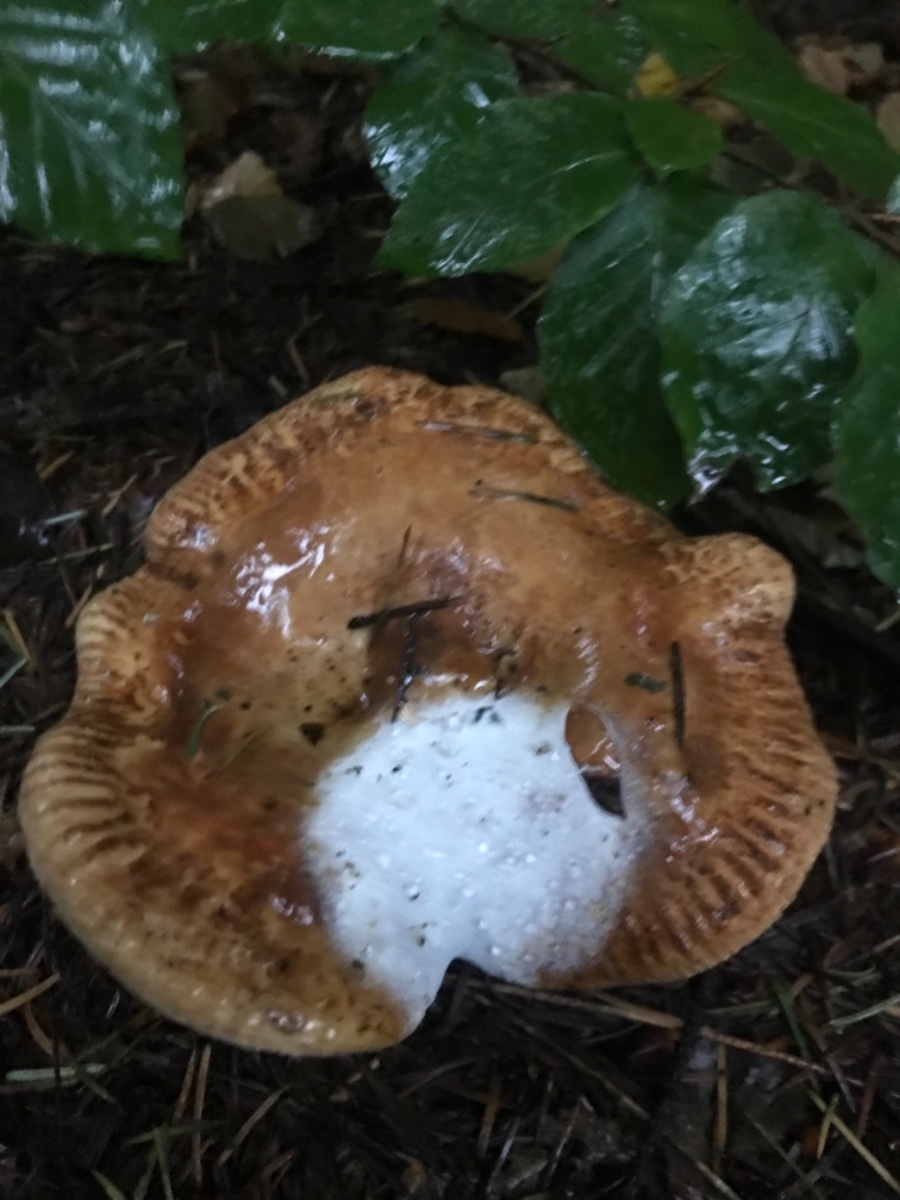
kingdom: Fungi
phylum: Basidiomycota
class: Agaricomycetes
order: Boletales
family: Paxillaceae
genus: Paxillus
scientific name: Paxillus involutus
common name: almindelig netbladhat
